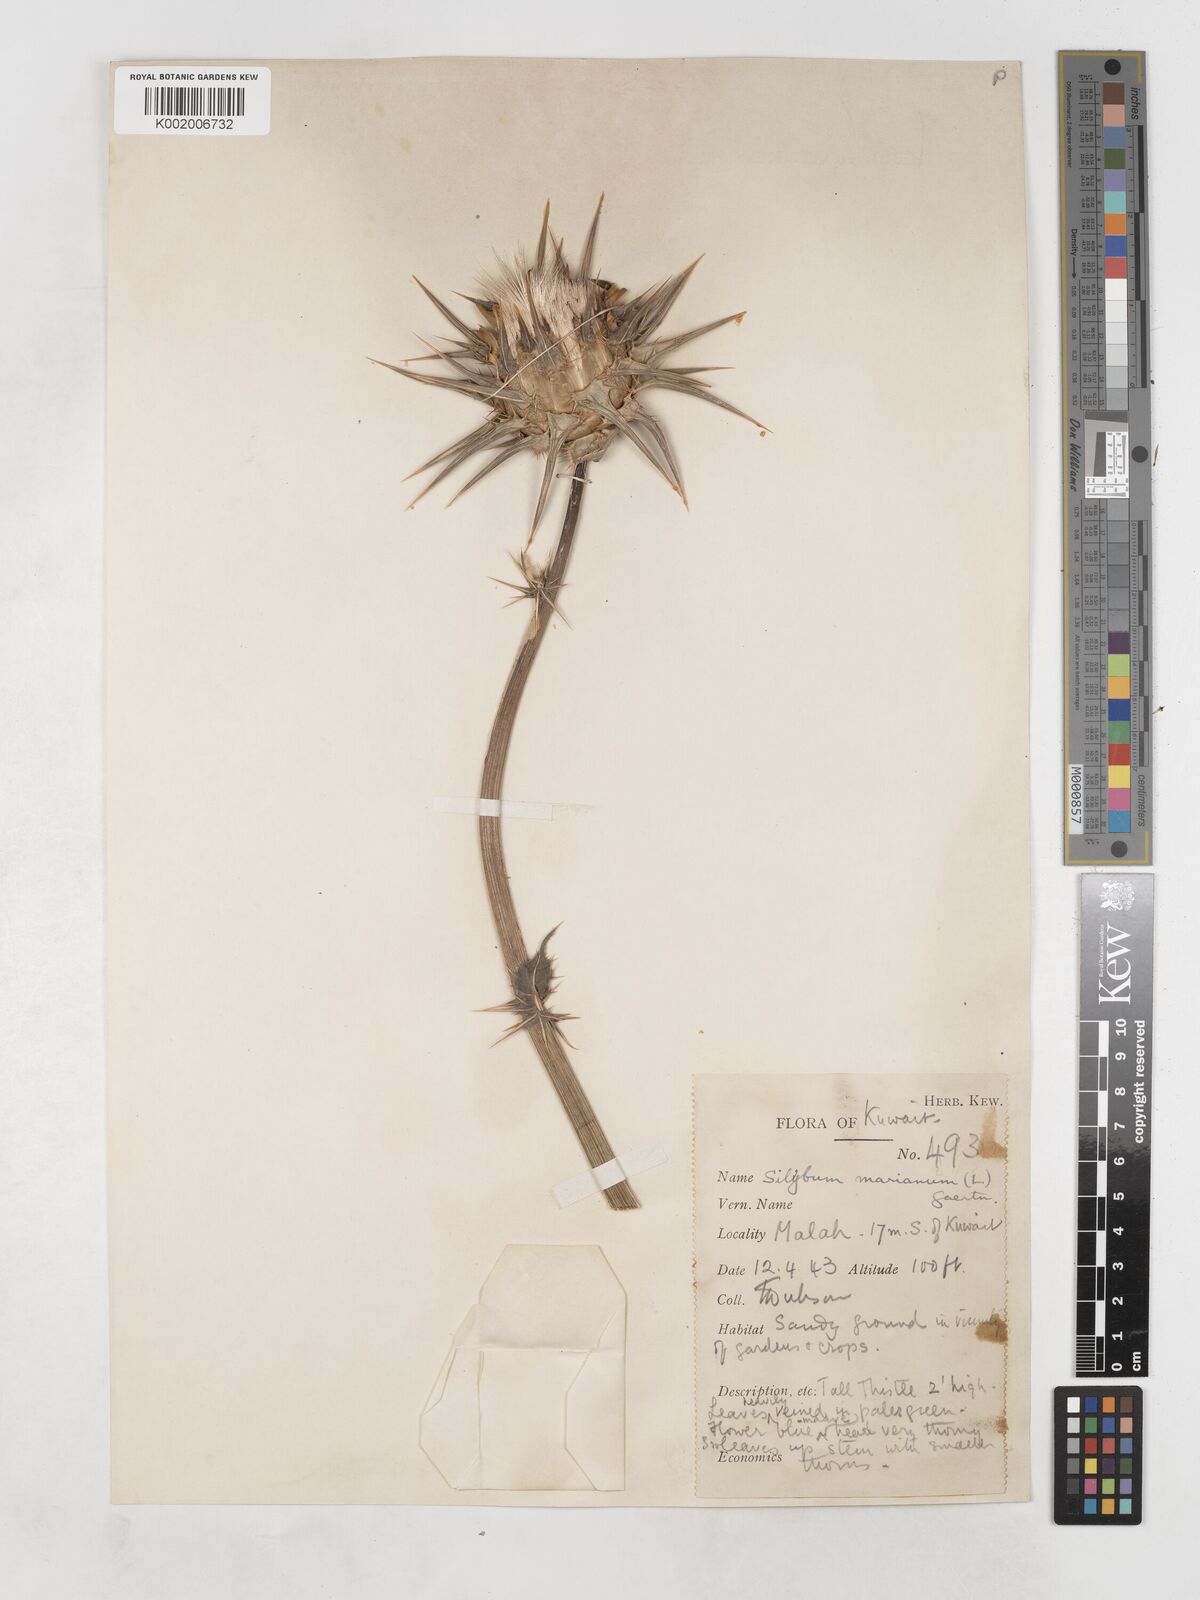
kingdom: Plantae
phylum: Tracheophyta
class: Magnoliopsida
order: Asterales
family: Asteraceae
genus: Silybum
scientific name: Silybum marianum
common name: Milk thistle
